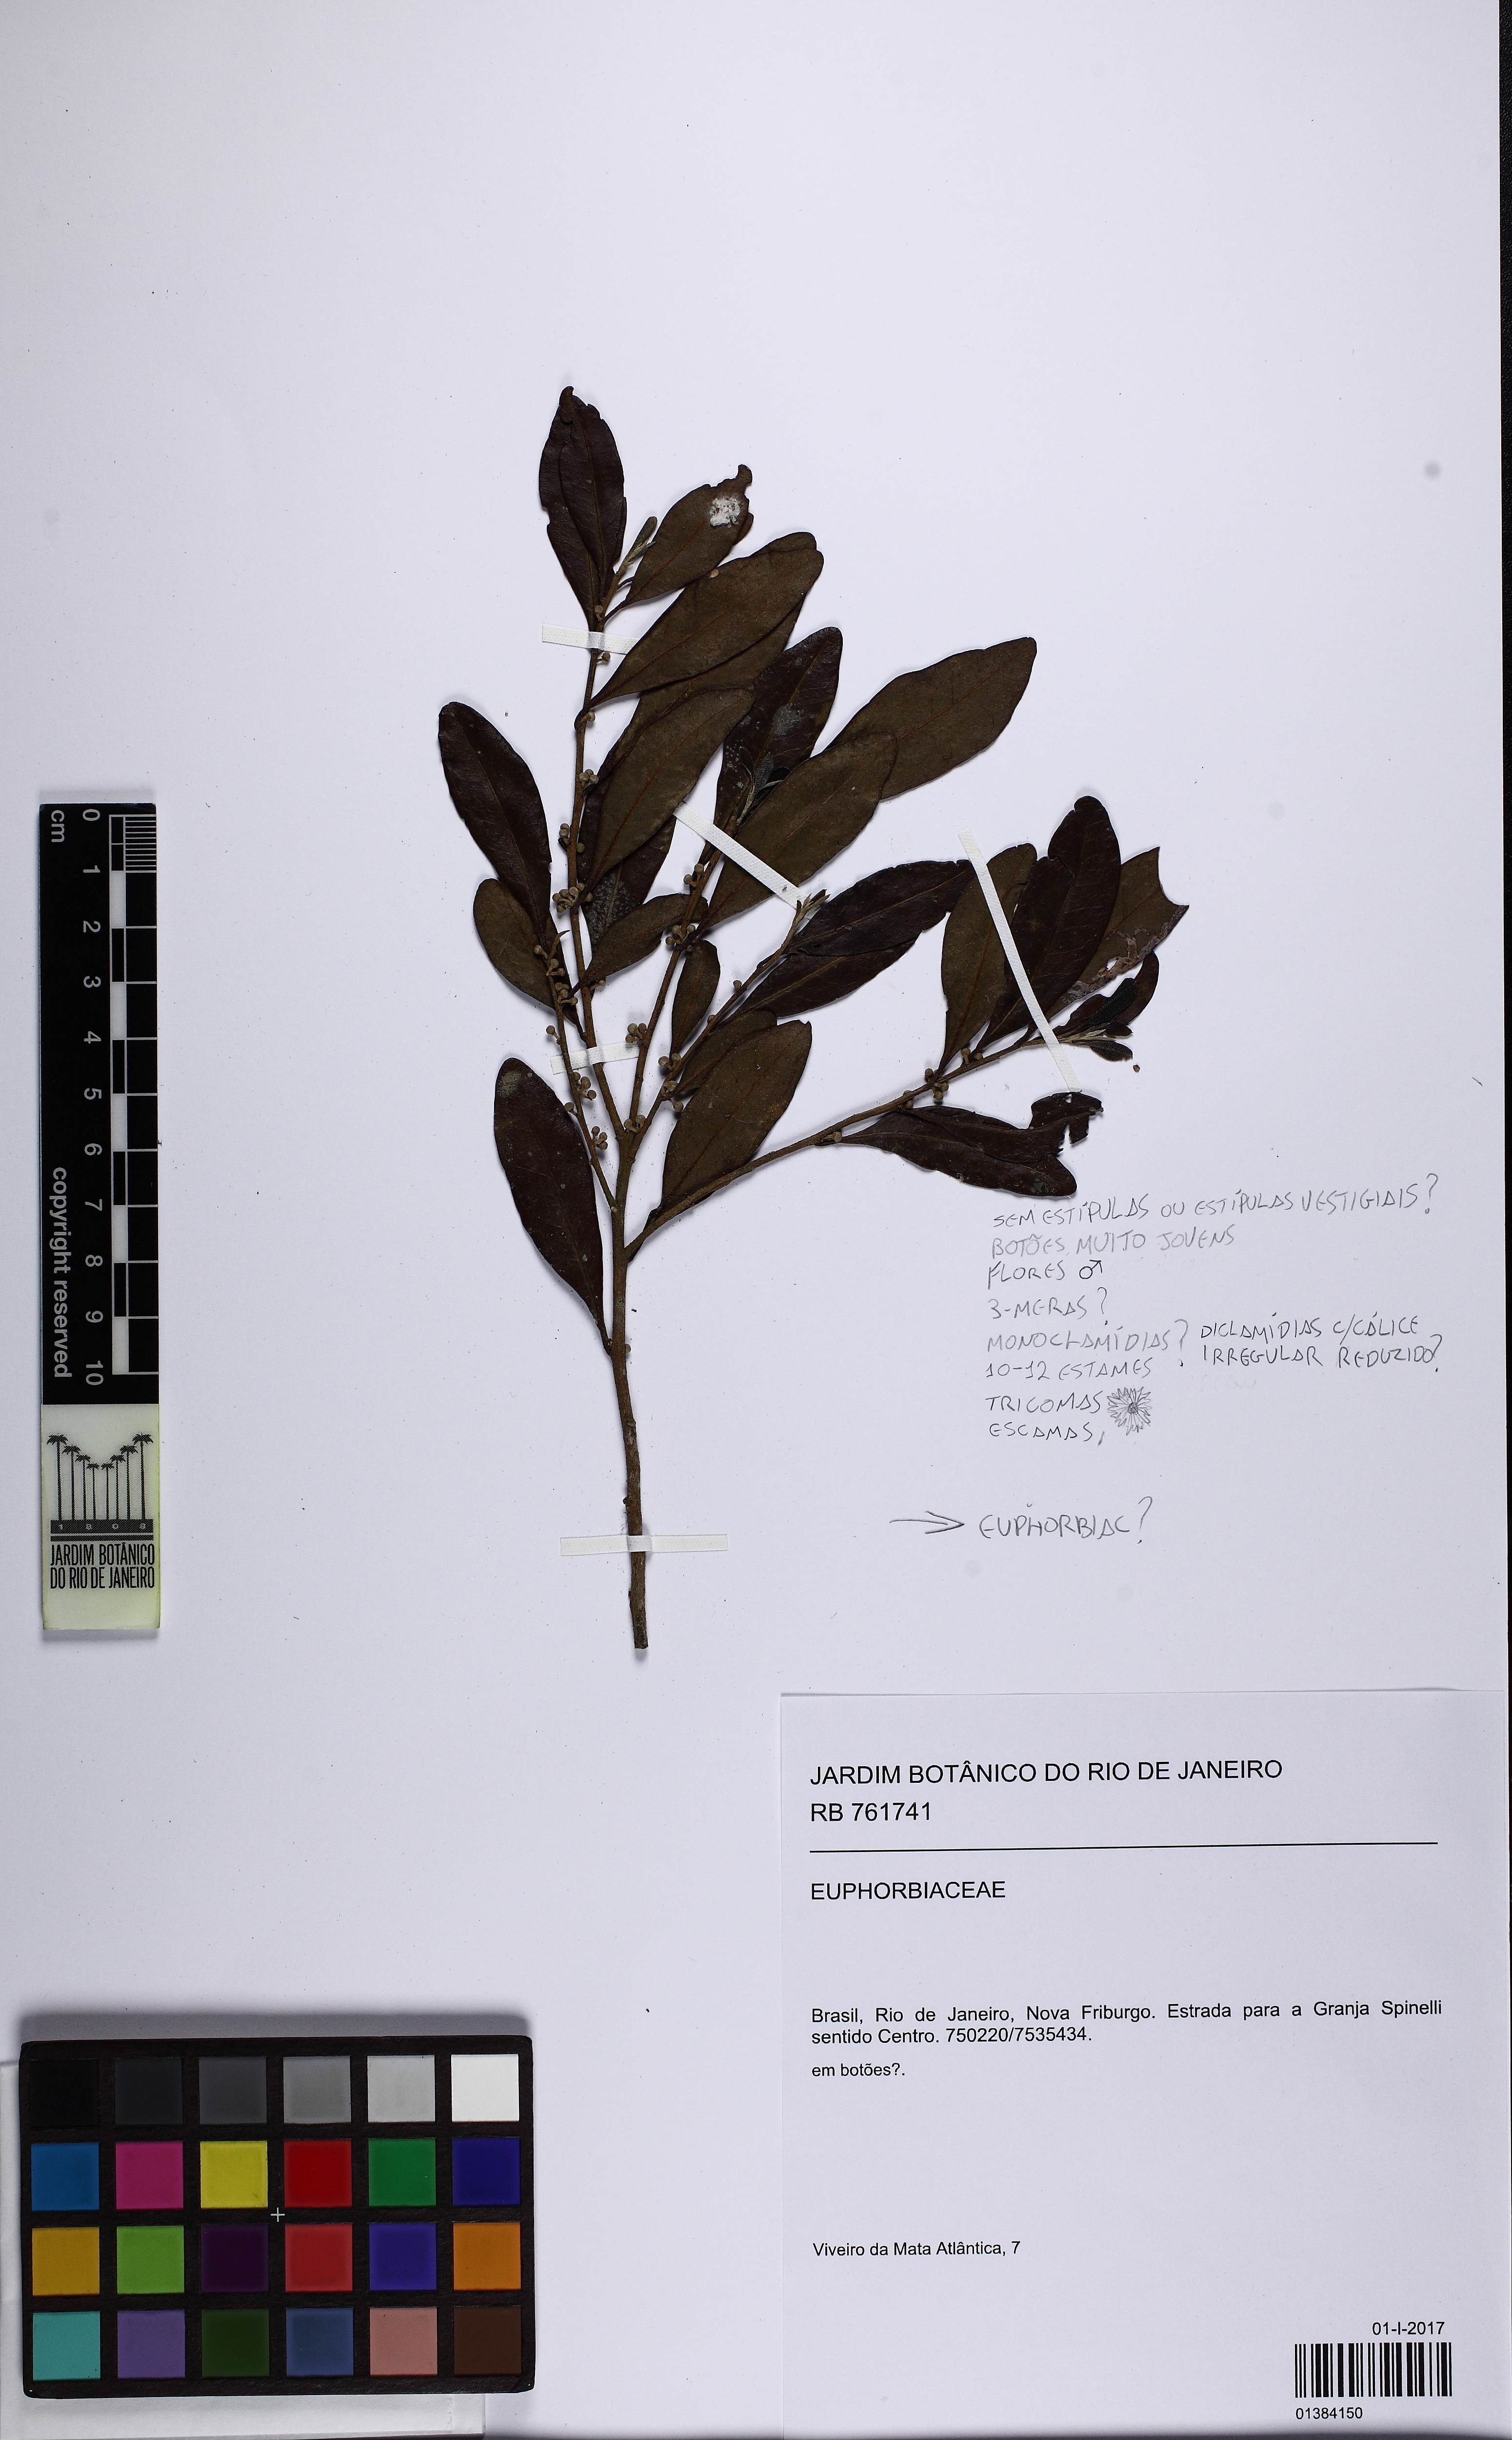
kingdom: Animalia
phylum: Mollusca
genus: Pera
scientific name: Pera
